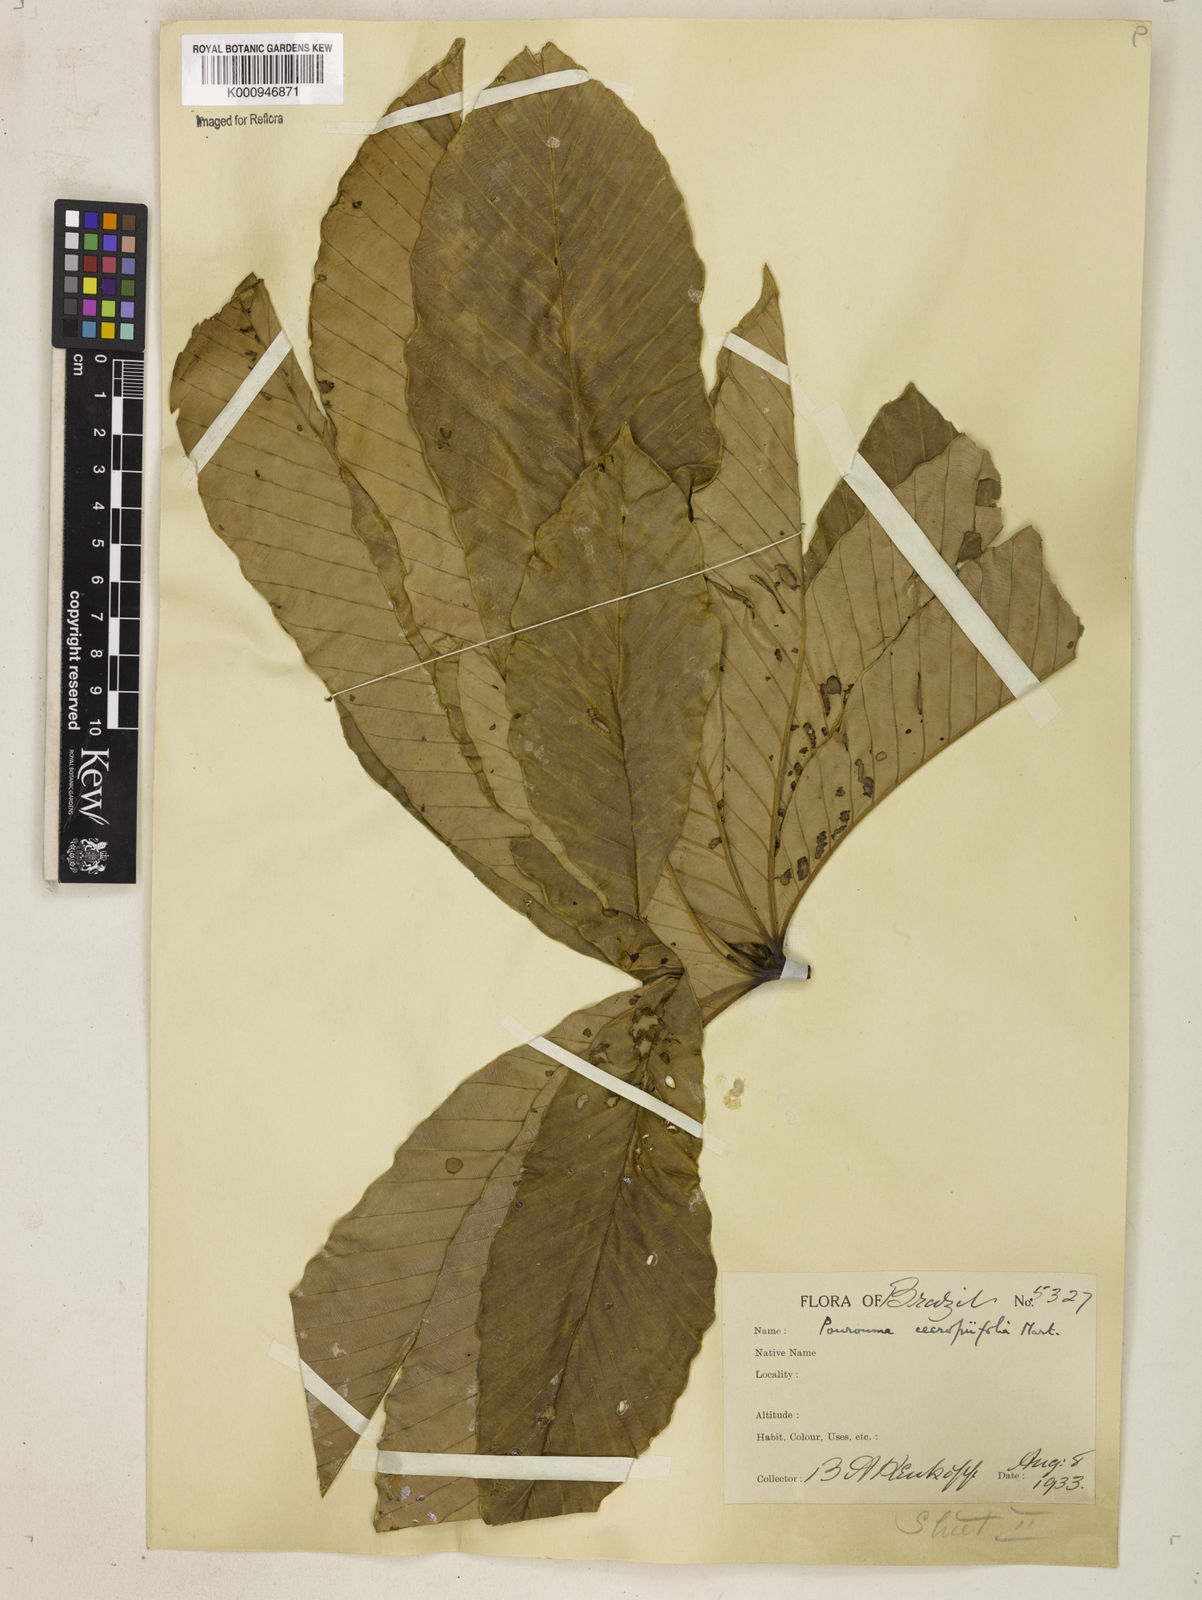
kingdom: Plantae
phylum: Tracheophyta
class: Magnoliopsida
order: Rosales
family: Urticaceae
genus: Pourouma
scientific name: Pourouma cecropiifolia
